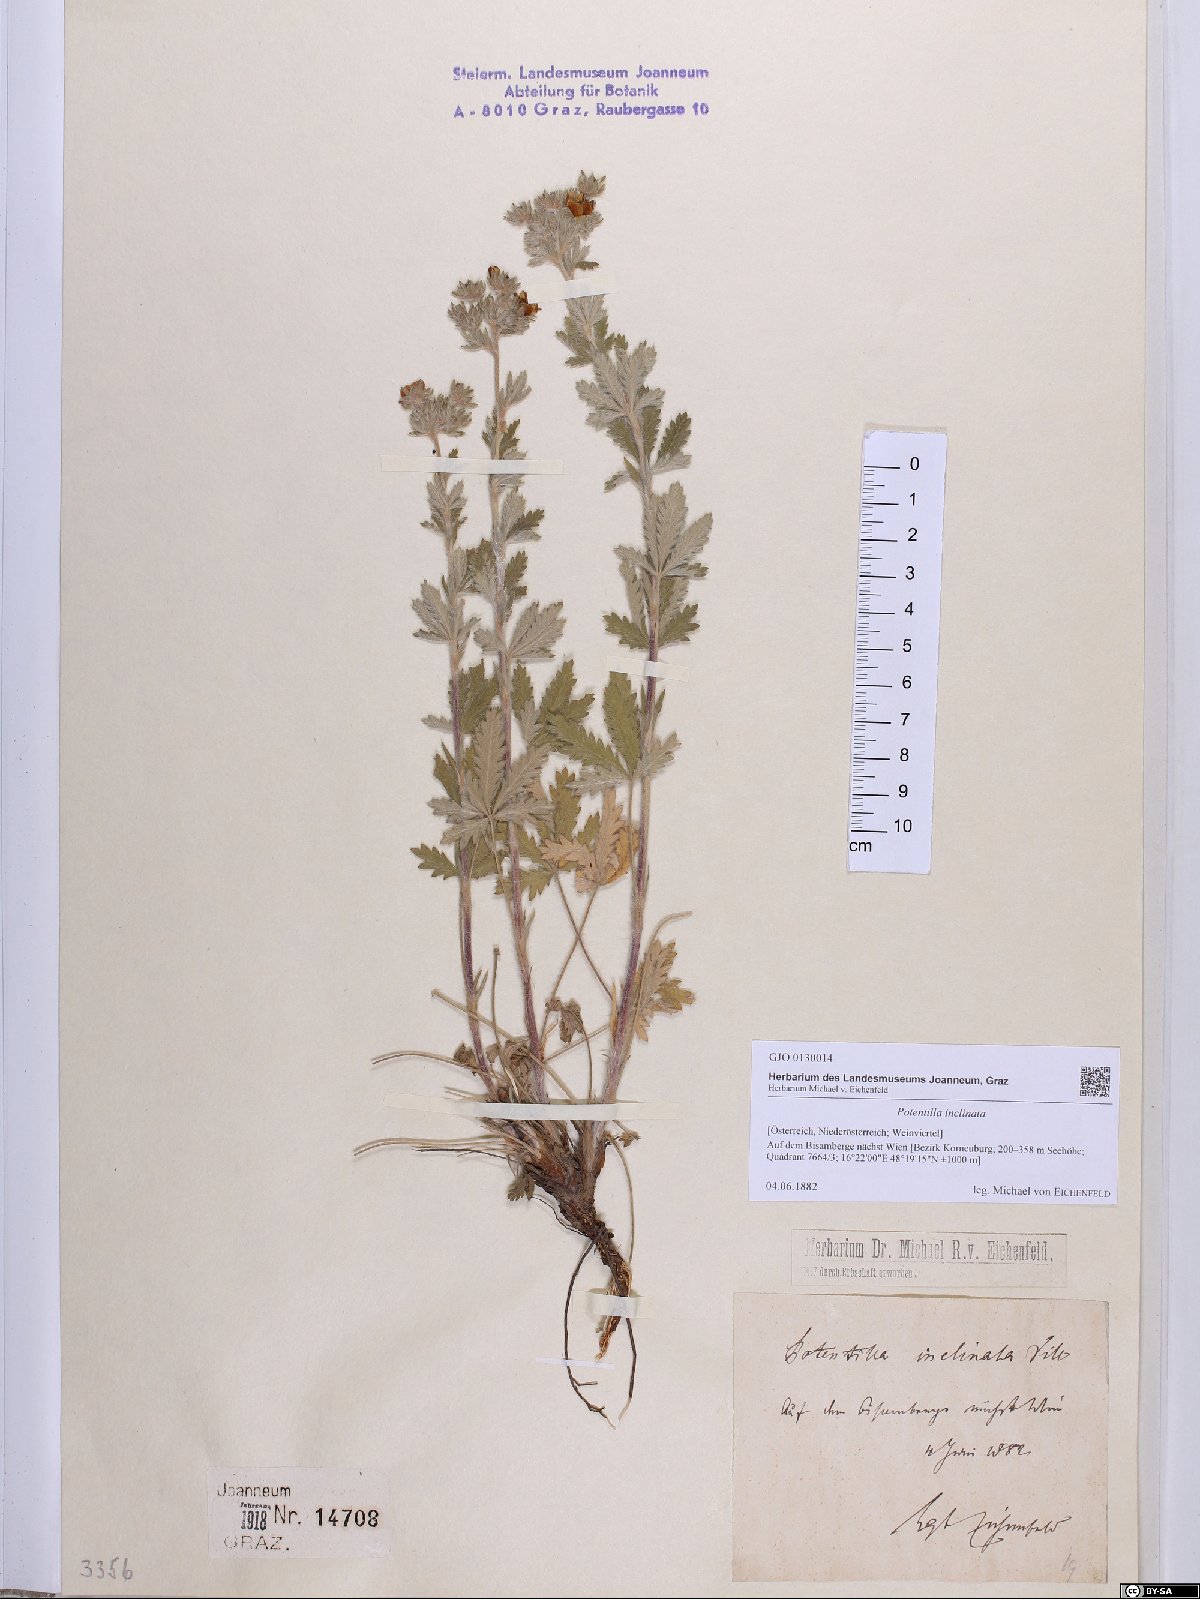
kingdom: Plantae
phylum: Tracheophyta
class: Magnoliopsida
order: Rosales
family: Rosaceae
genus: Potentilla
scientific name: Potentilla inclinata
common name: Grey cinquefoil
